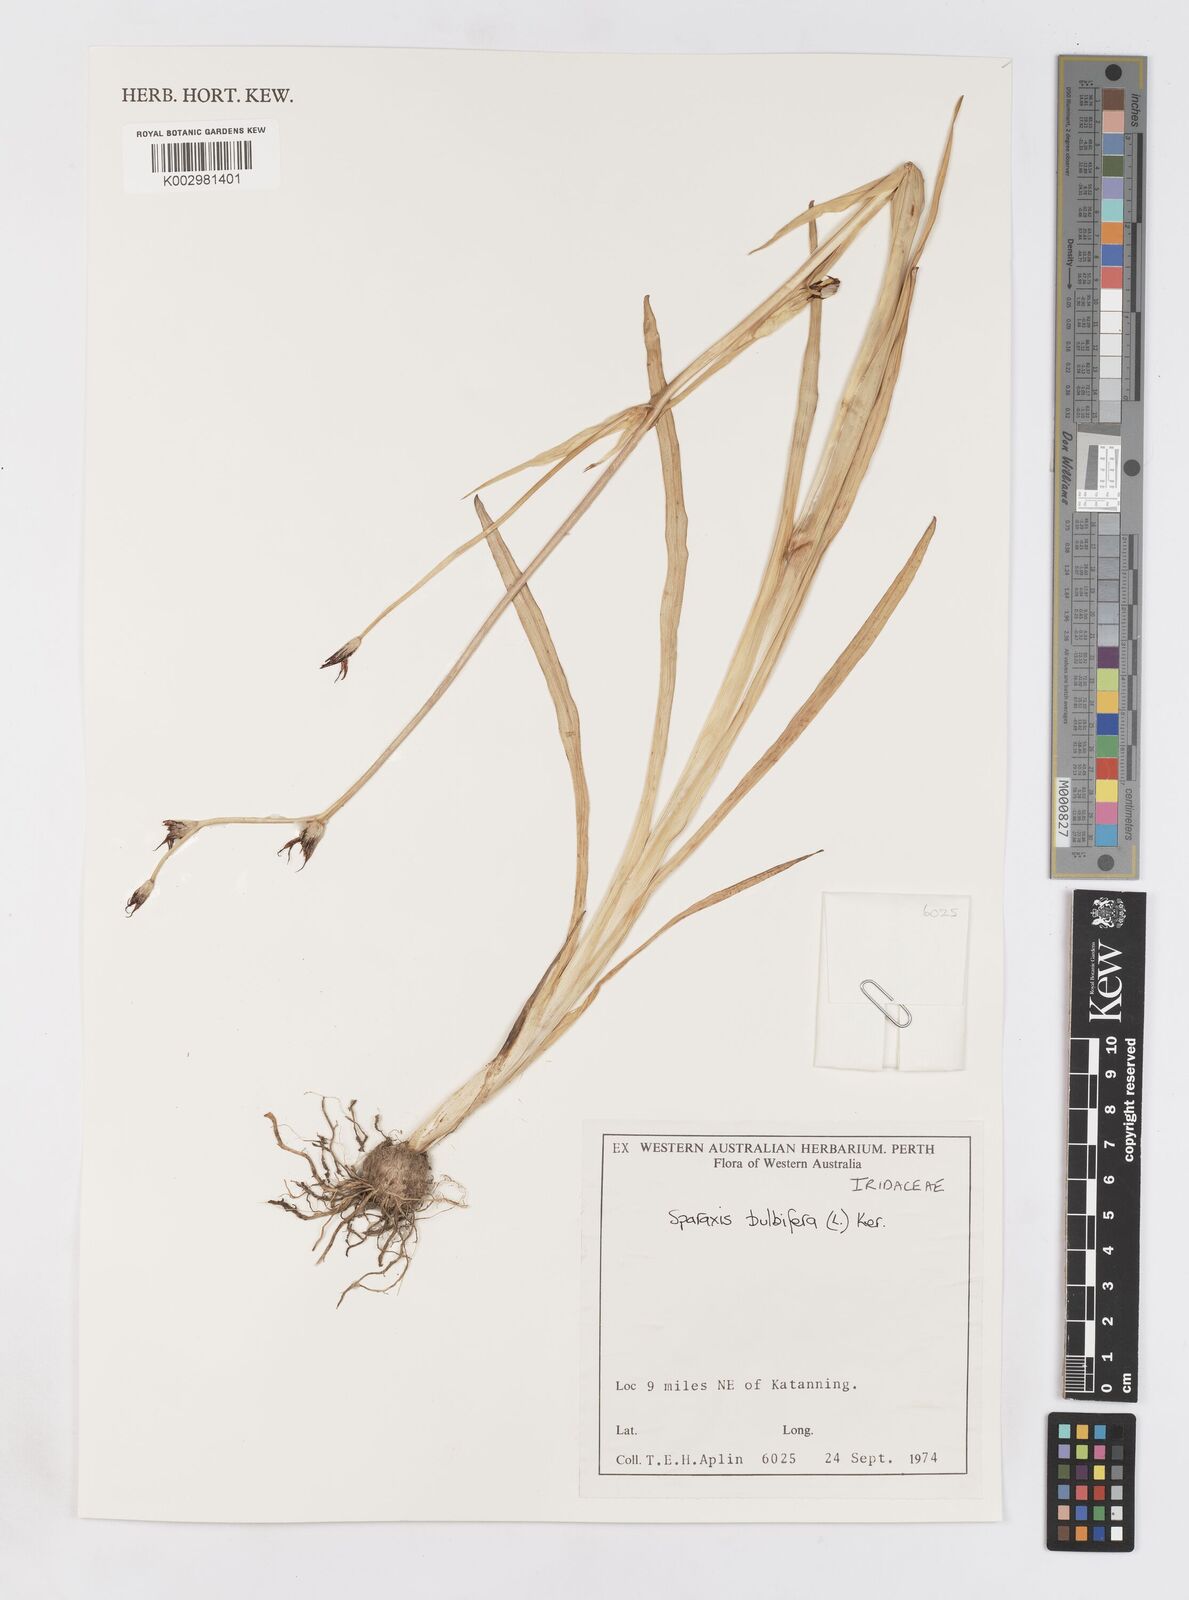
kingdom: Plantae
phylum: Tracheophyta
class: Liliopsida
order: Asparagales
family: Iridaceae
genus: Sparaxis
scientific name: Sparaxis bulbifera
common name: Harlequin-flower
